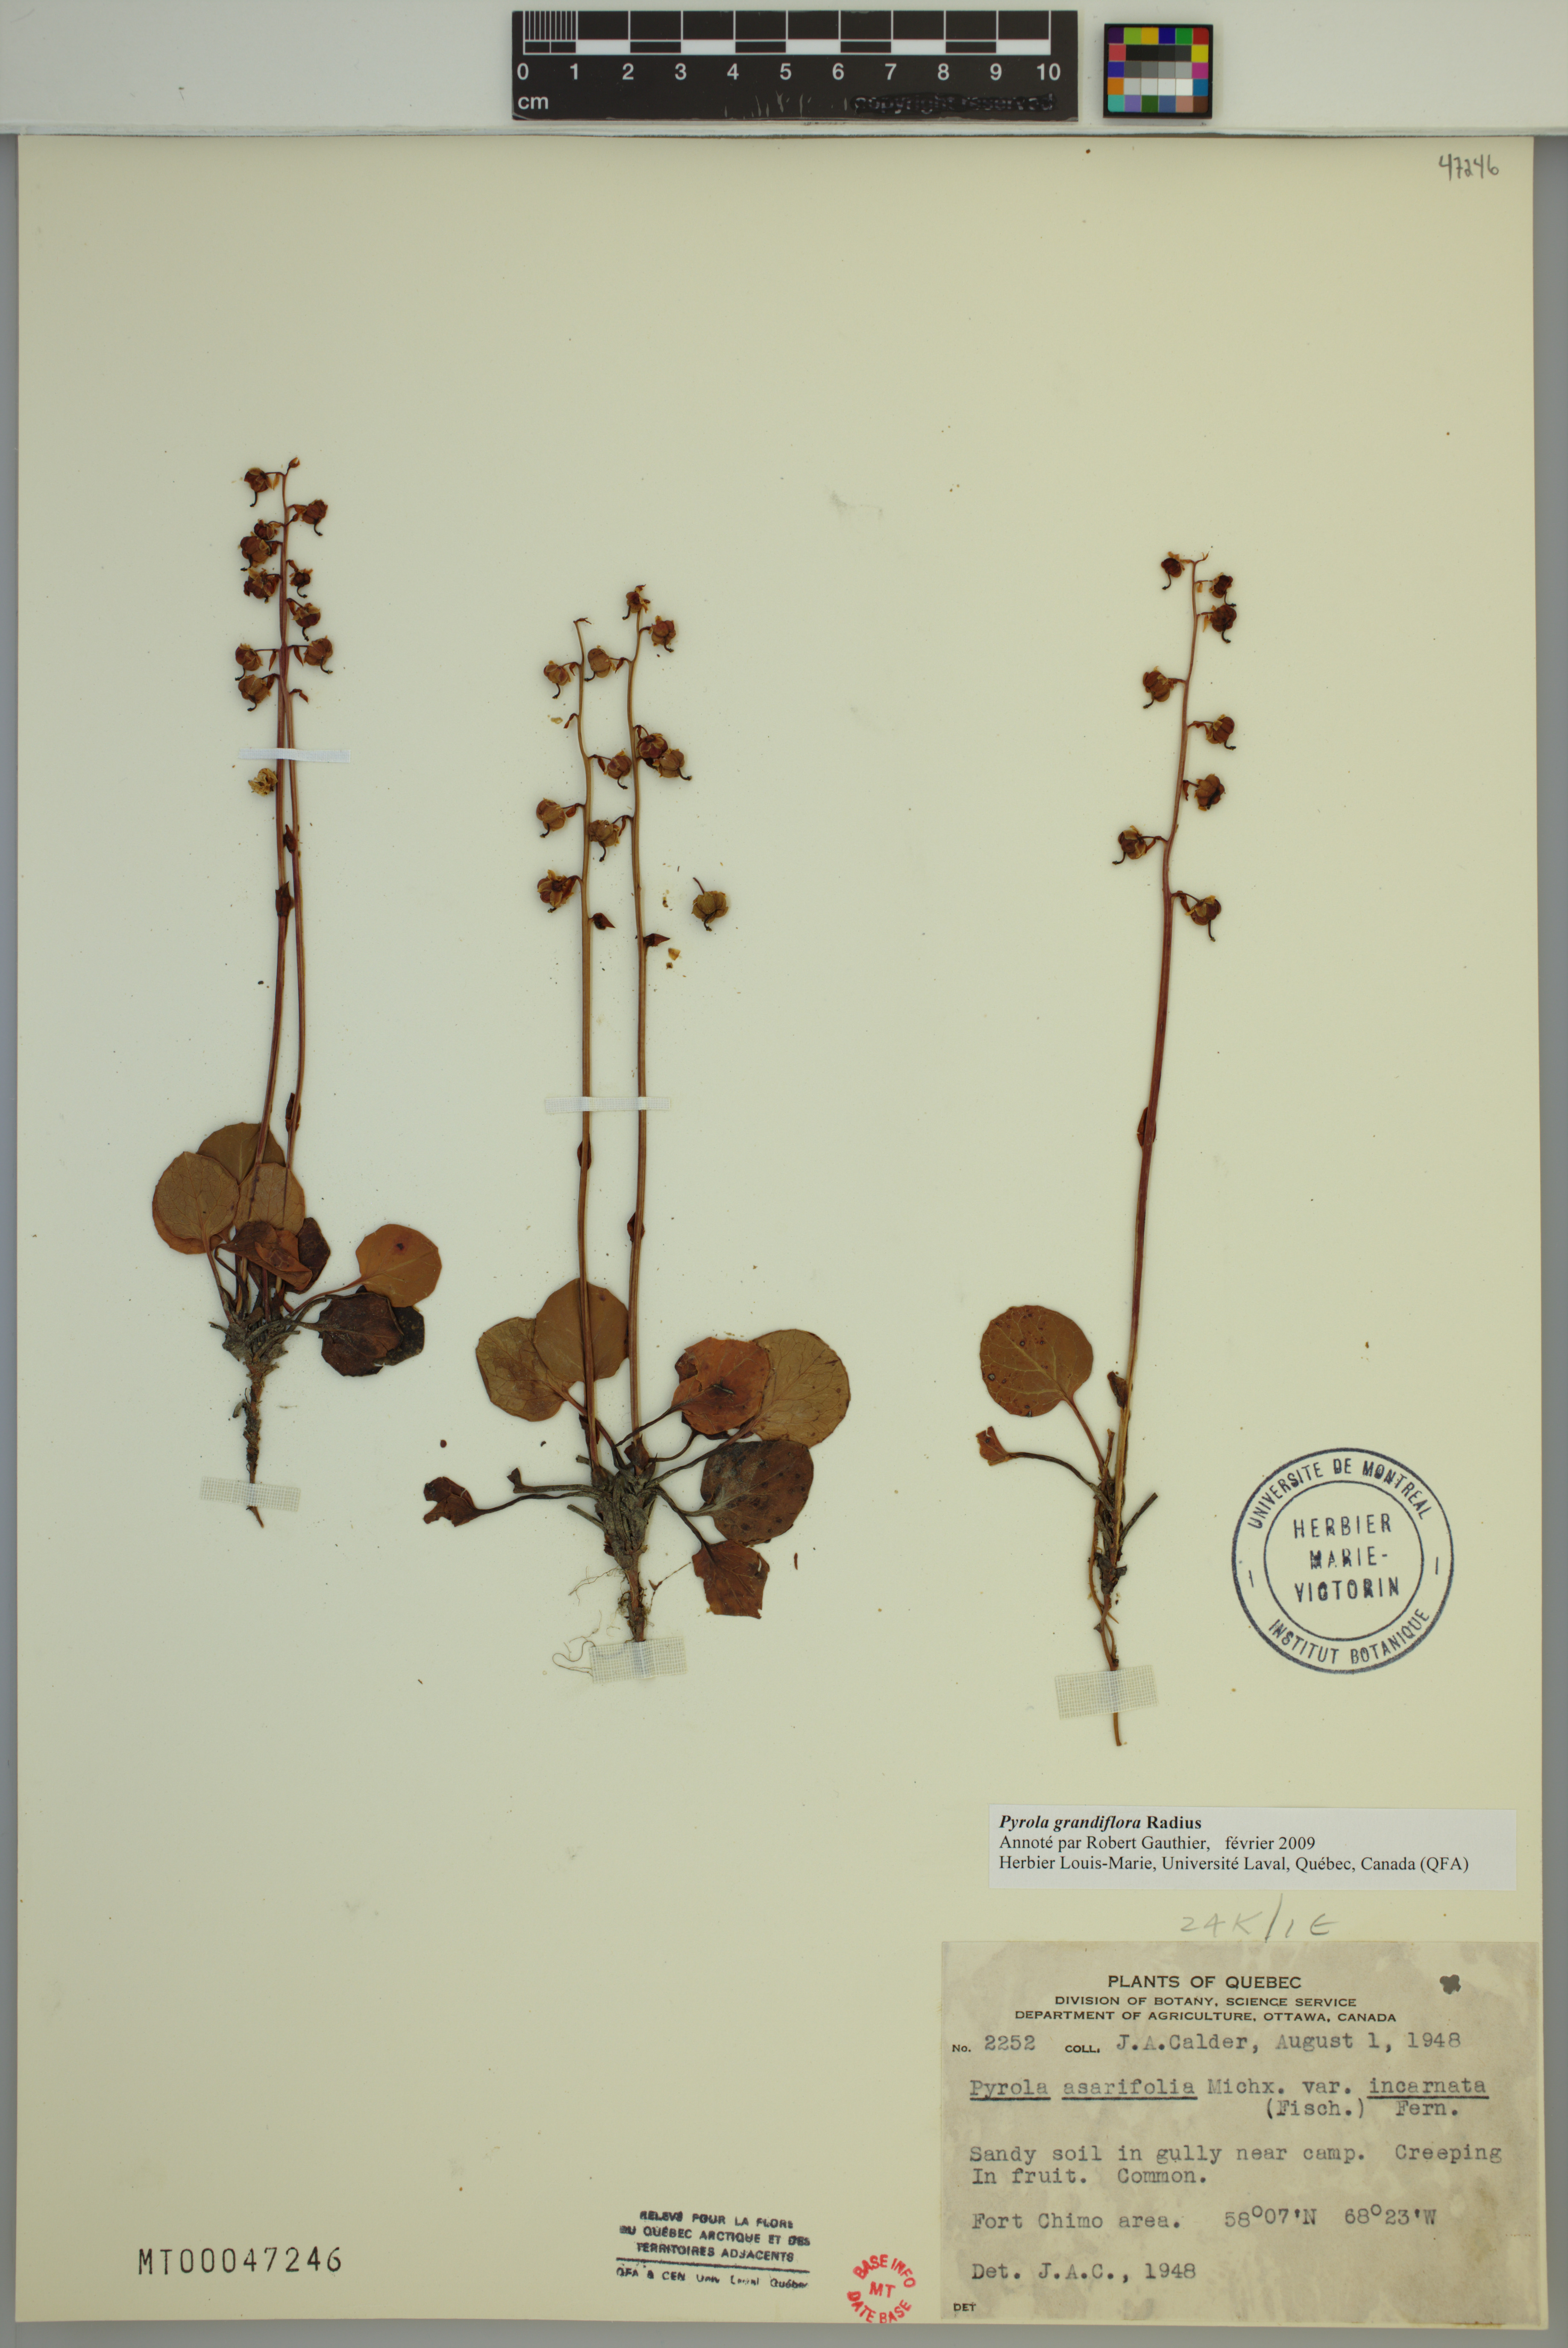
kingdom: Plantae
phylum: Tracheophyta
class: Magnoliopsida
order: Ericales
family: Ericaceae
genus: Pyrola
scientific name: Pyrola grandiflora
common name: Arctic pyrola
